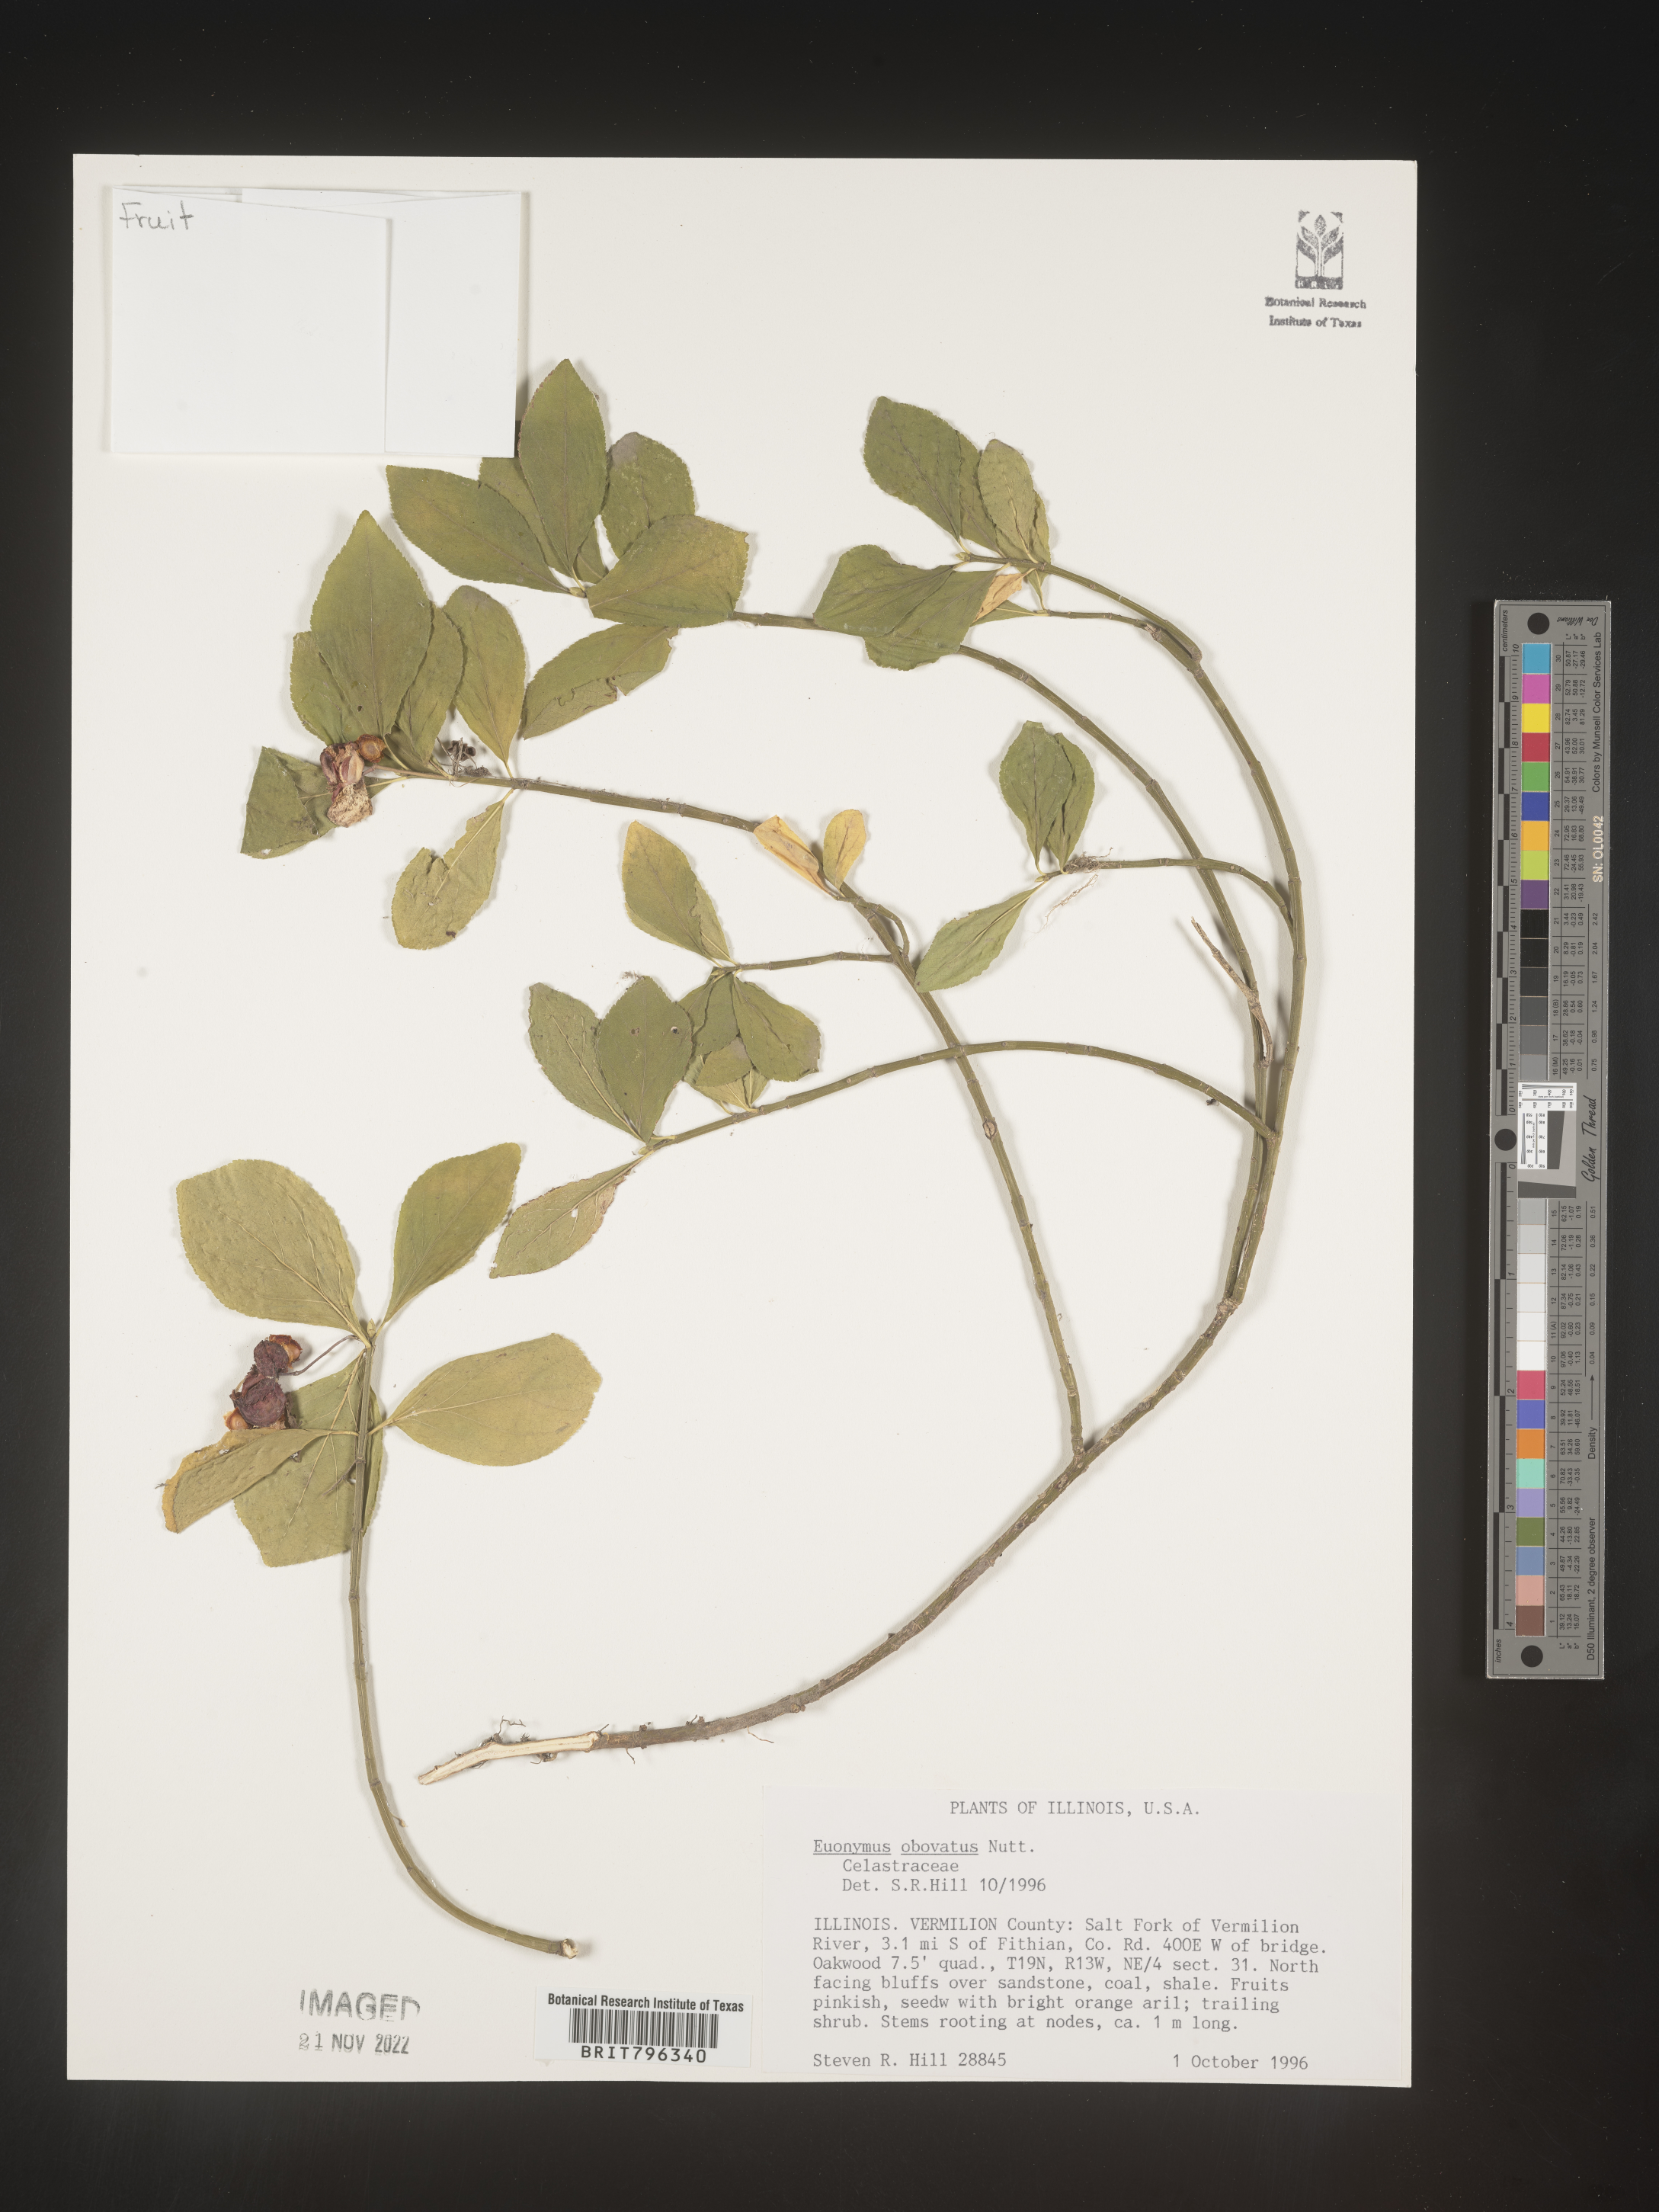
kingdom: Plantae
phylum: Tracheophyta
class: Magnoliopsida
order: Celastrales
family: Celastraceae
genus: Euonymus
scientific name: Euonymus obovatus
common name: Running strawberry-bush
